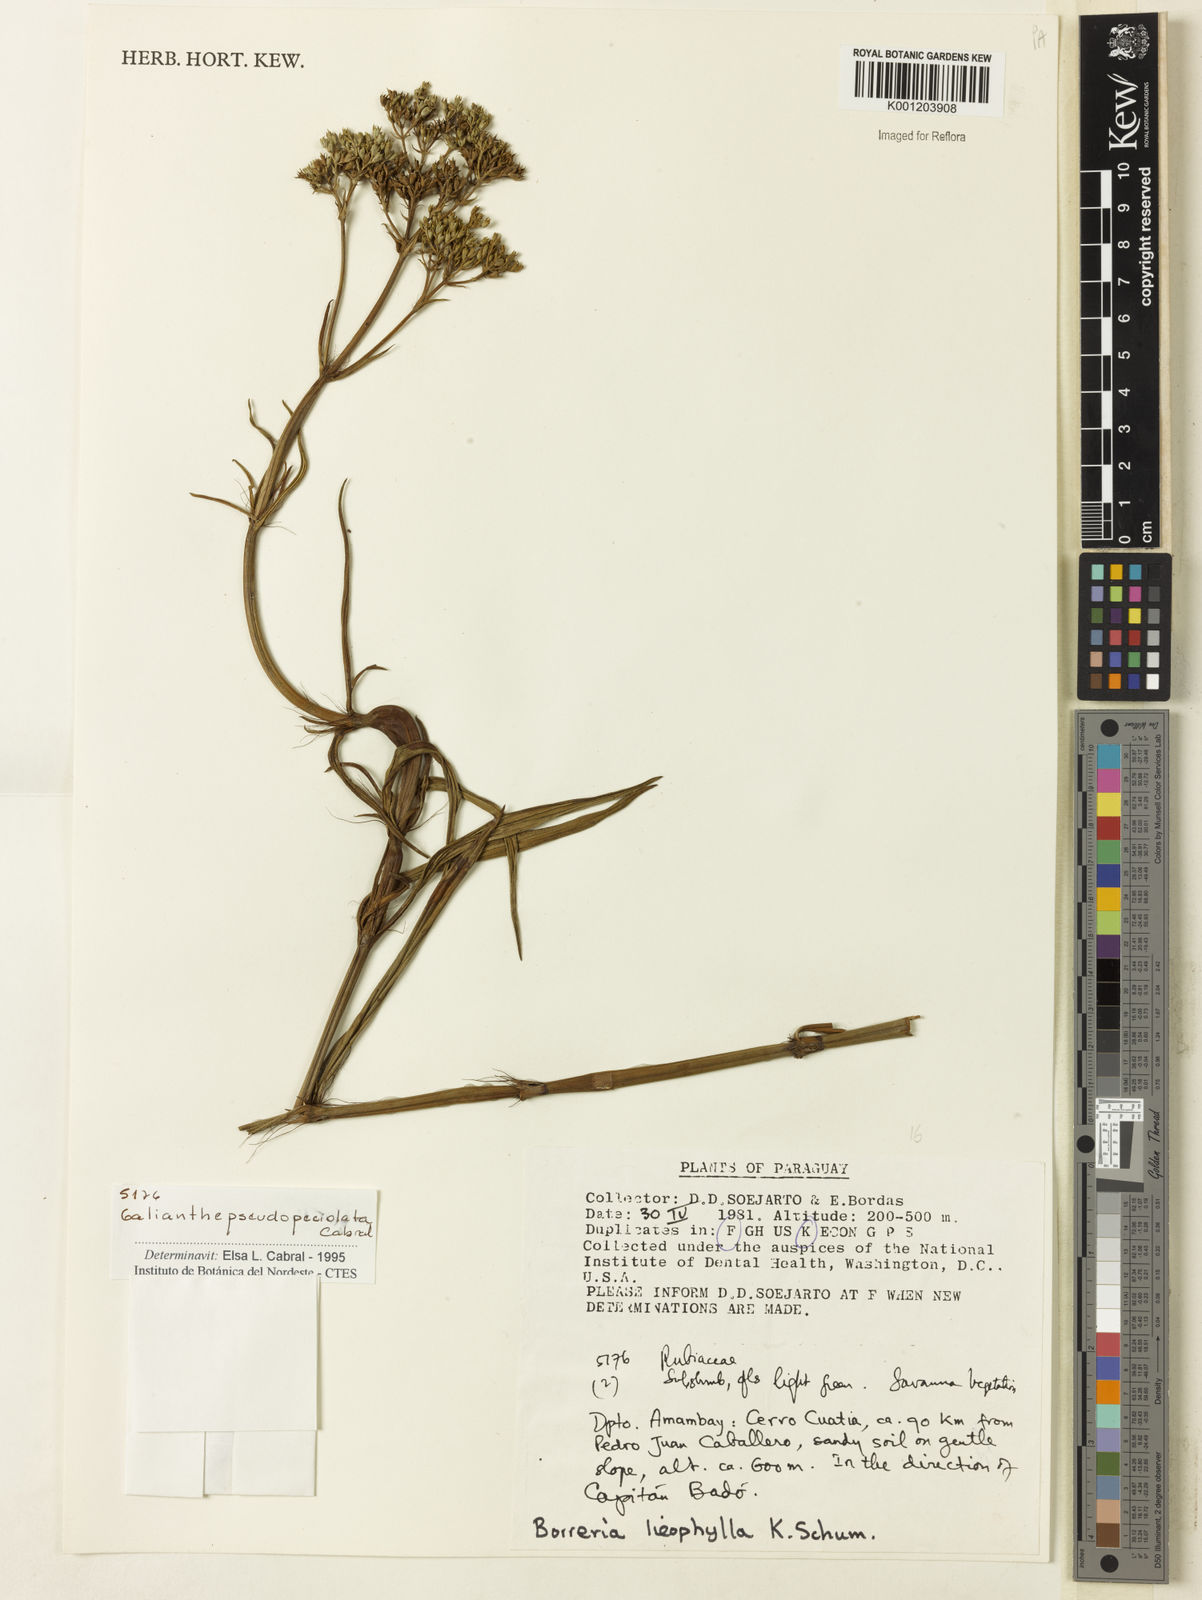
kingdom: Plantae
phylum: Tracheophyta
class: Magnoliopsida
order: Gentianales
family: Rubiaceae
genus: Galianthe
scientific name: Galianthe pseudopetiolata
